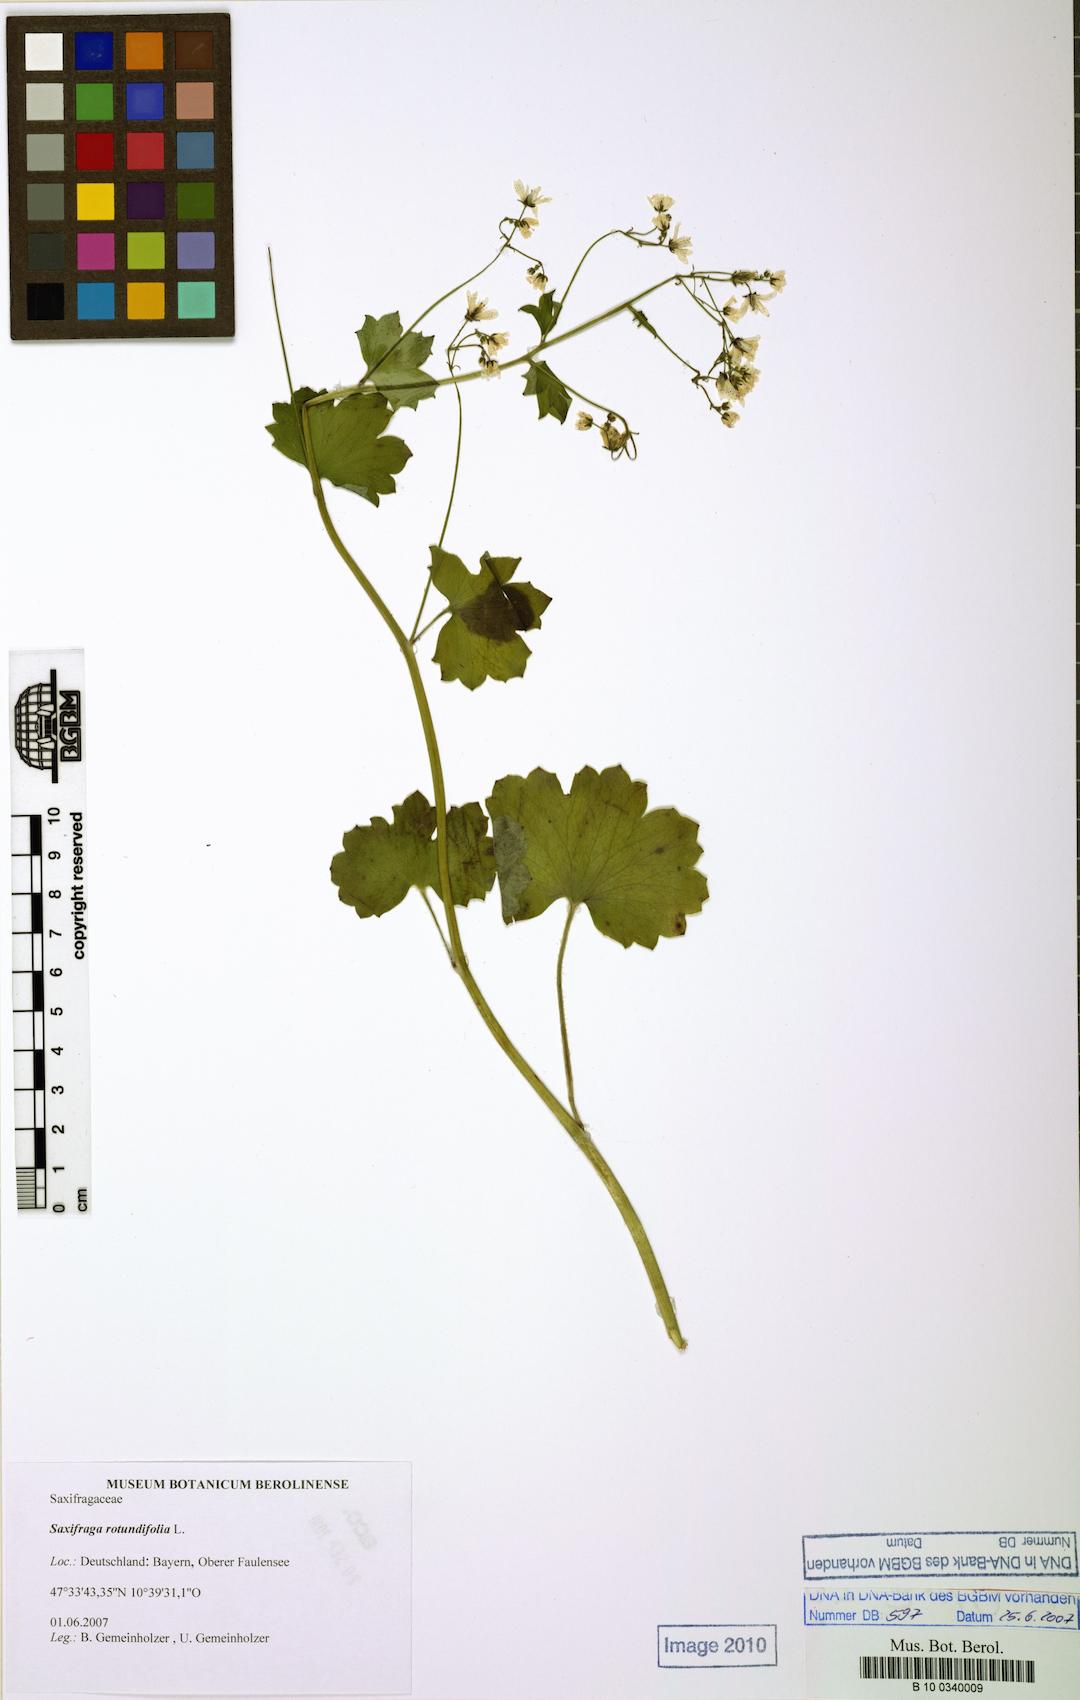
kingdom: Plantae
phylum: Tracheophyta
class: Magnoliopsida
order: Saxifragales
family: Saxifragaceae
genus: Saxifraga
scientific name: Saxifraga rotundifolia
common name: Round-leaved saxifrage
